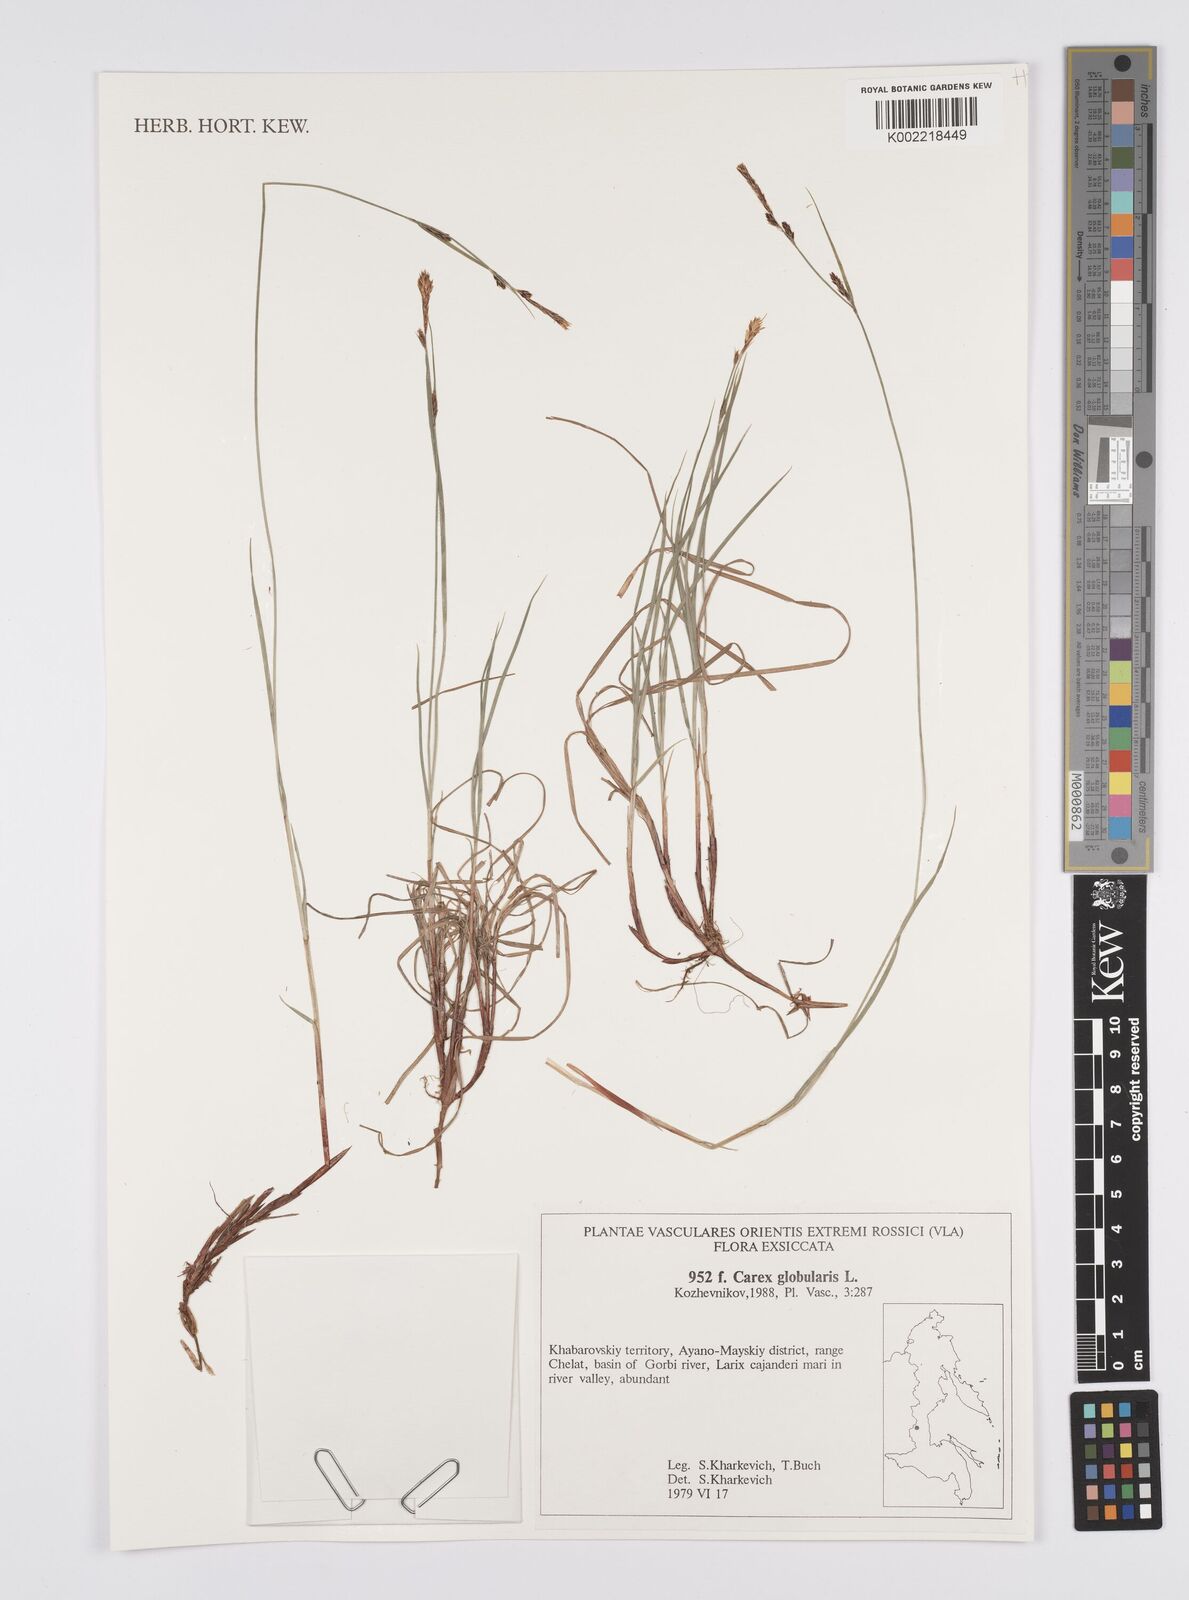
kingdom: Plantae
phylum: Tracheophyta
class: Liliopsida
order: Poales
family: Cyperaceae
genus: Carex
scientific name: Carex globularis
